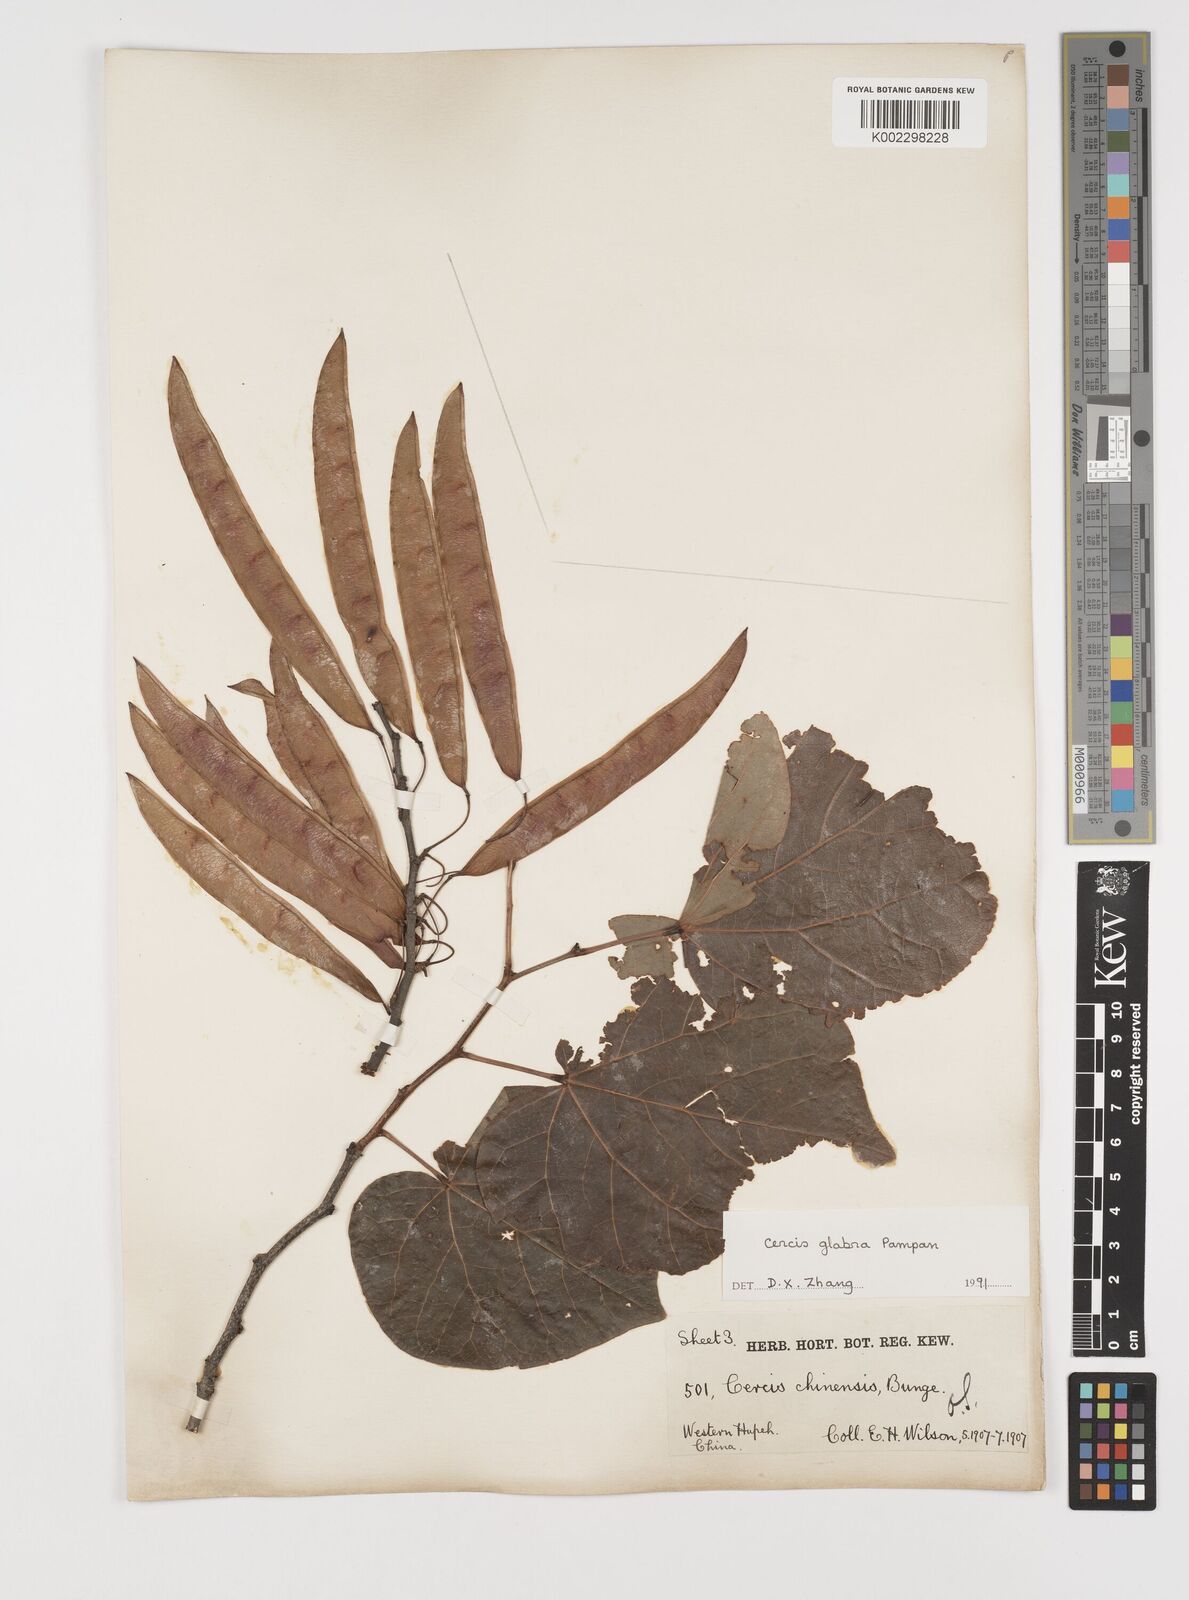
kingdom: Plantae
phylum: Tracheophyta
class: Magnoliopsida
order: Fabales
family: Fabaceae
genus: Cercis
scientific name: Cercis glabra
